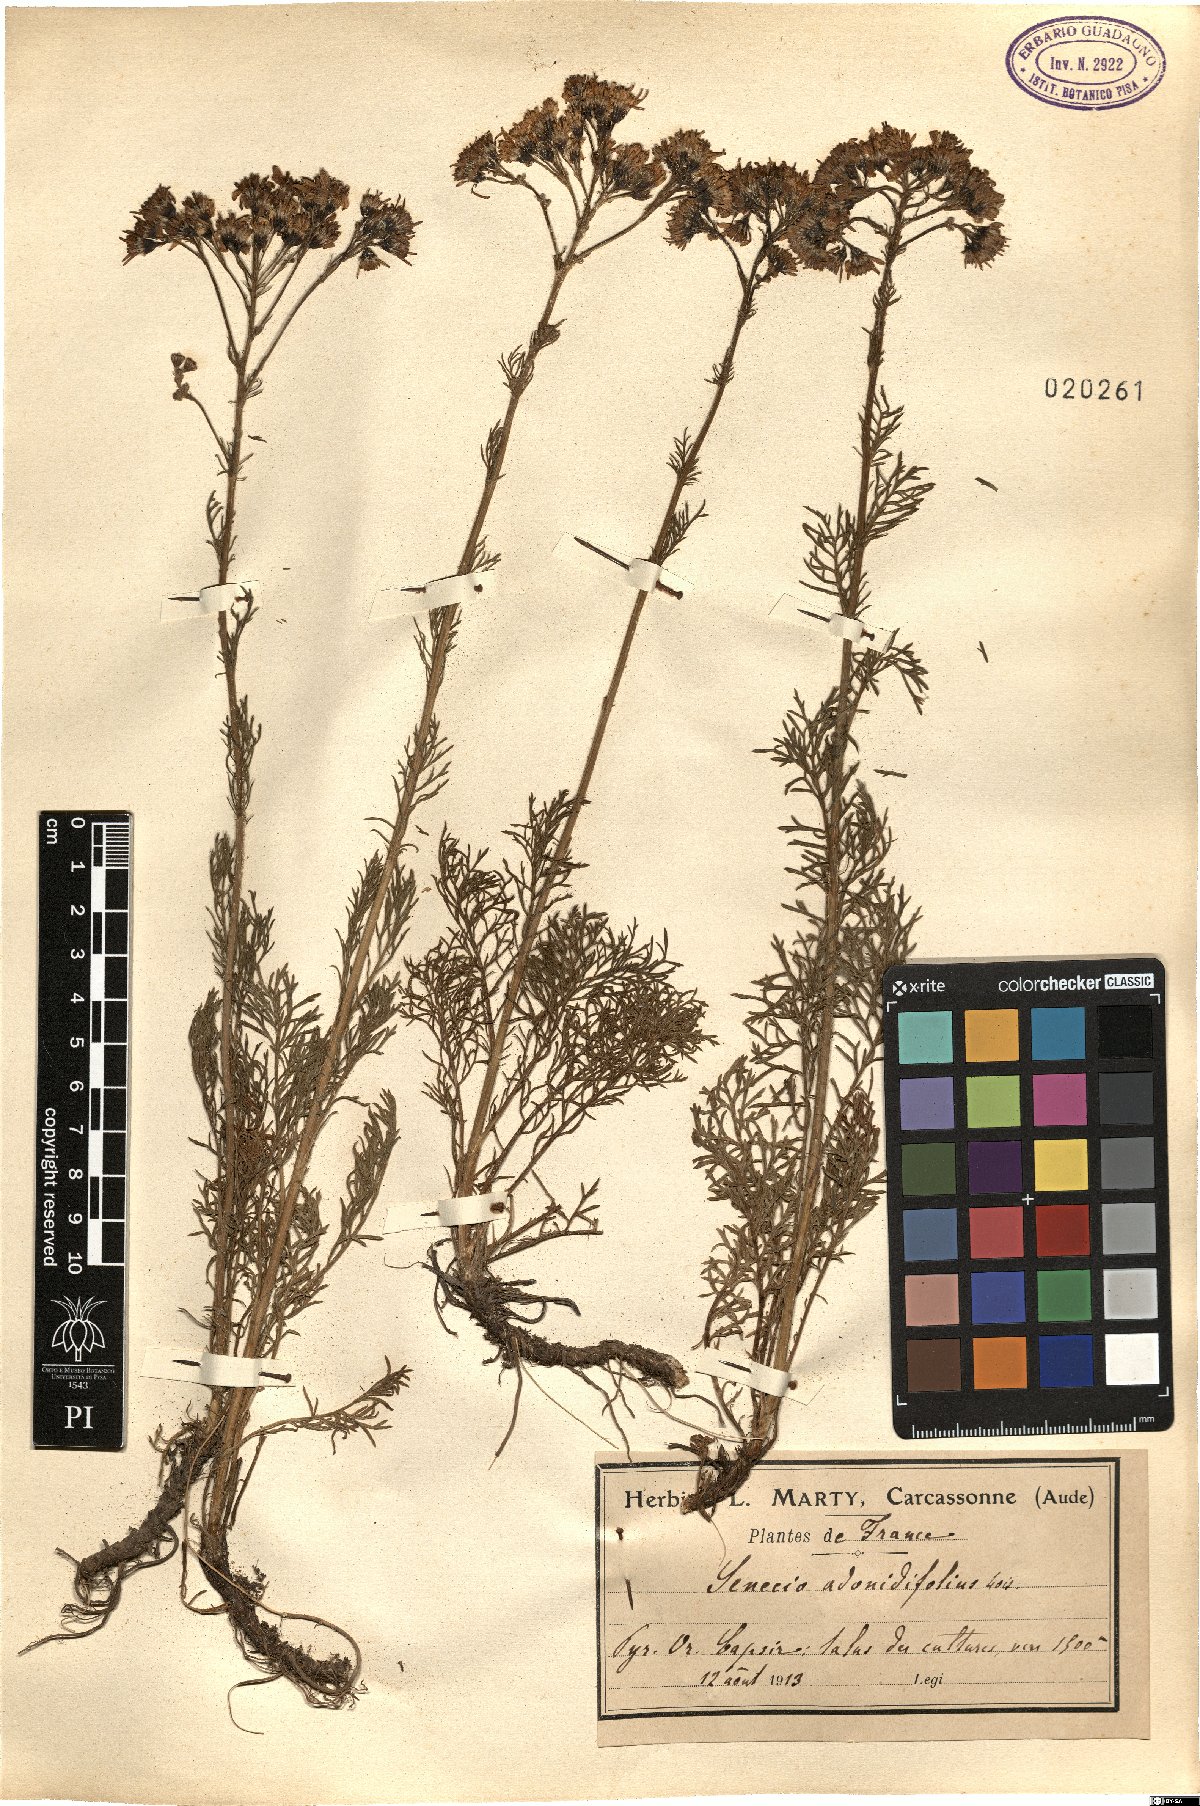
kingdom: Plantae
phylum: Tracheophyta
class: Magnoliopsida
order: Asterales
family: Asteraceae
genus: Jacobaea
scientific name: Jacobaea adonidifolia
